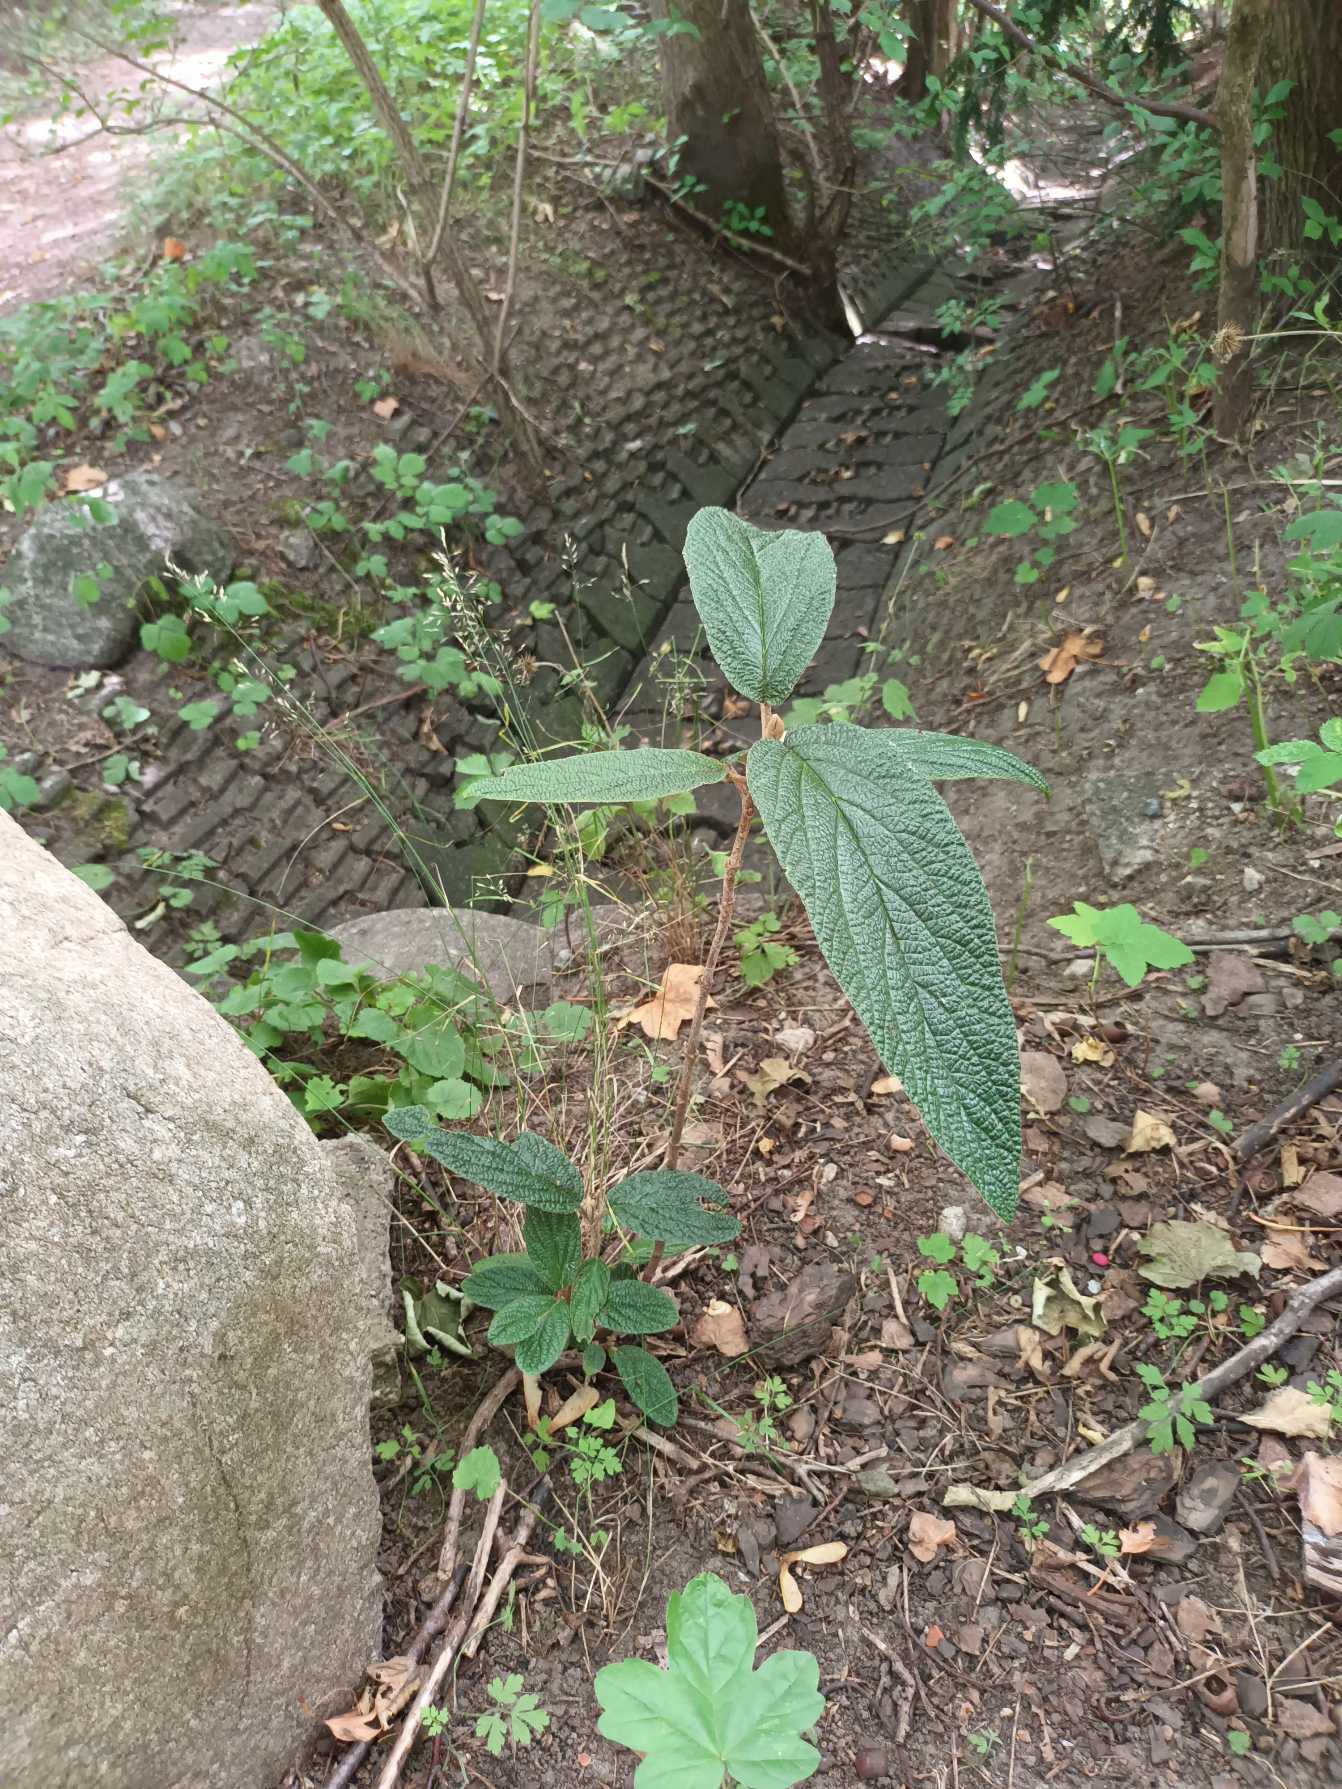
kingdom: Plantae
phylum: Tracheophyta
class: Magnoliopsida
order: Dipsacales
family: Viburnaceae
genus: Viburnum
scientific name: Viburnum rhytidophyllum
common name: Rynkeblad
